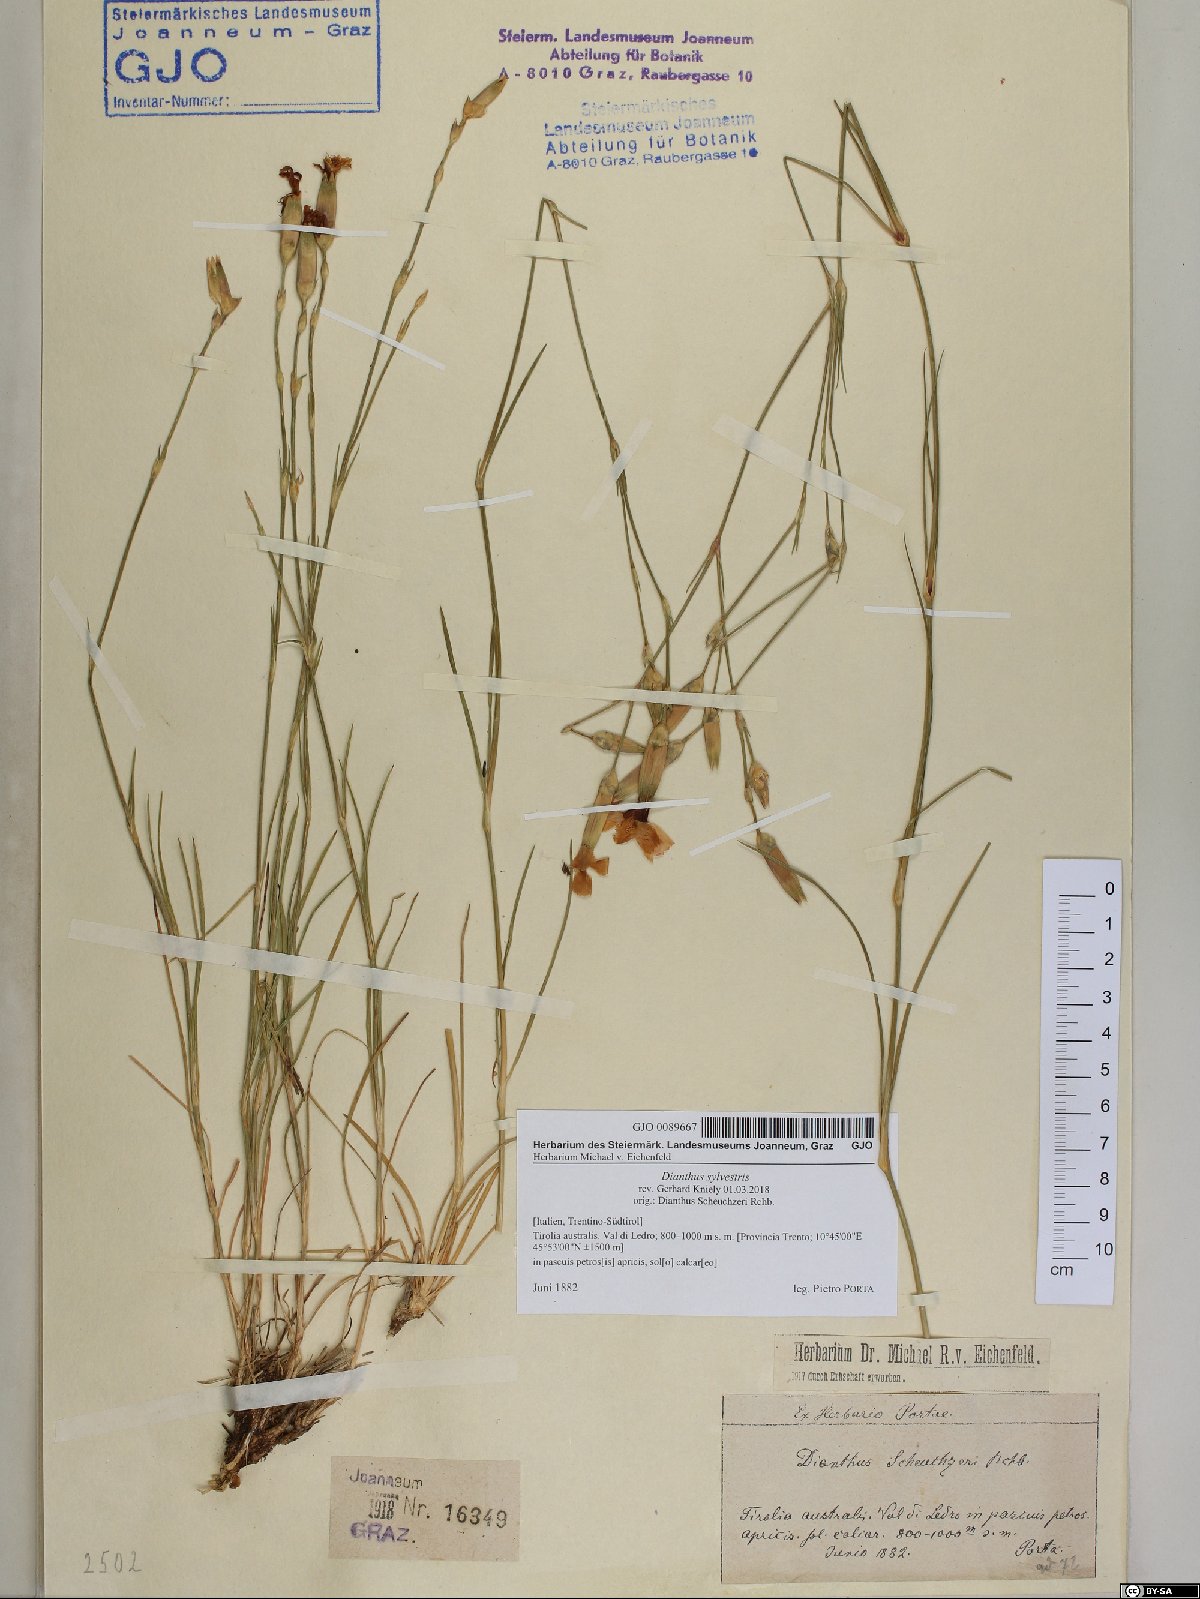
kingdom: Plantae
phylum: Tracheophyta
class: Magnoliopsida
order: Caryophyllales
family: Caryophyllaceae
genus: Dianthus
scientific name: Dianthus sylvestris
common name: Wood pink
